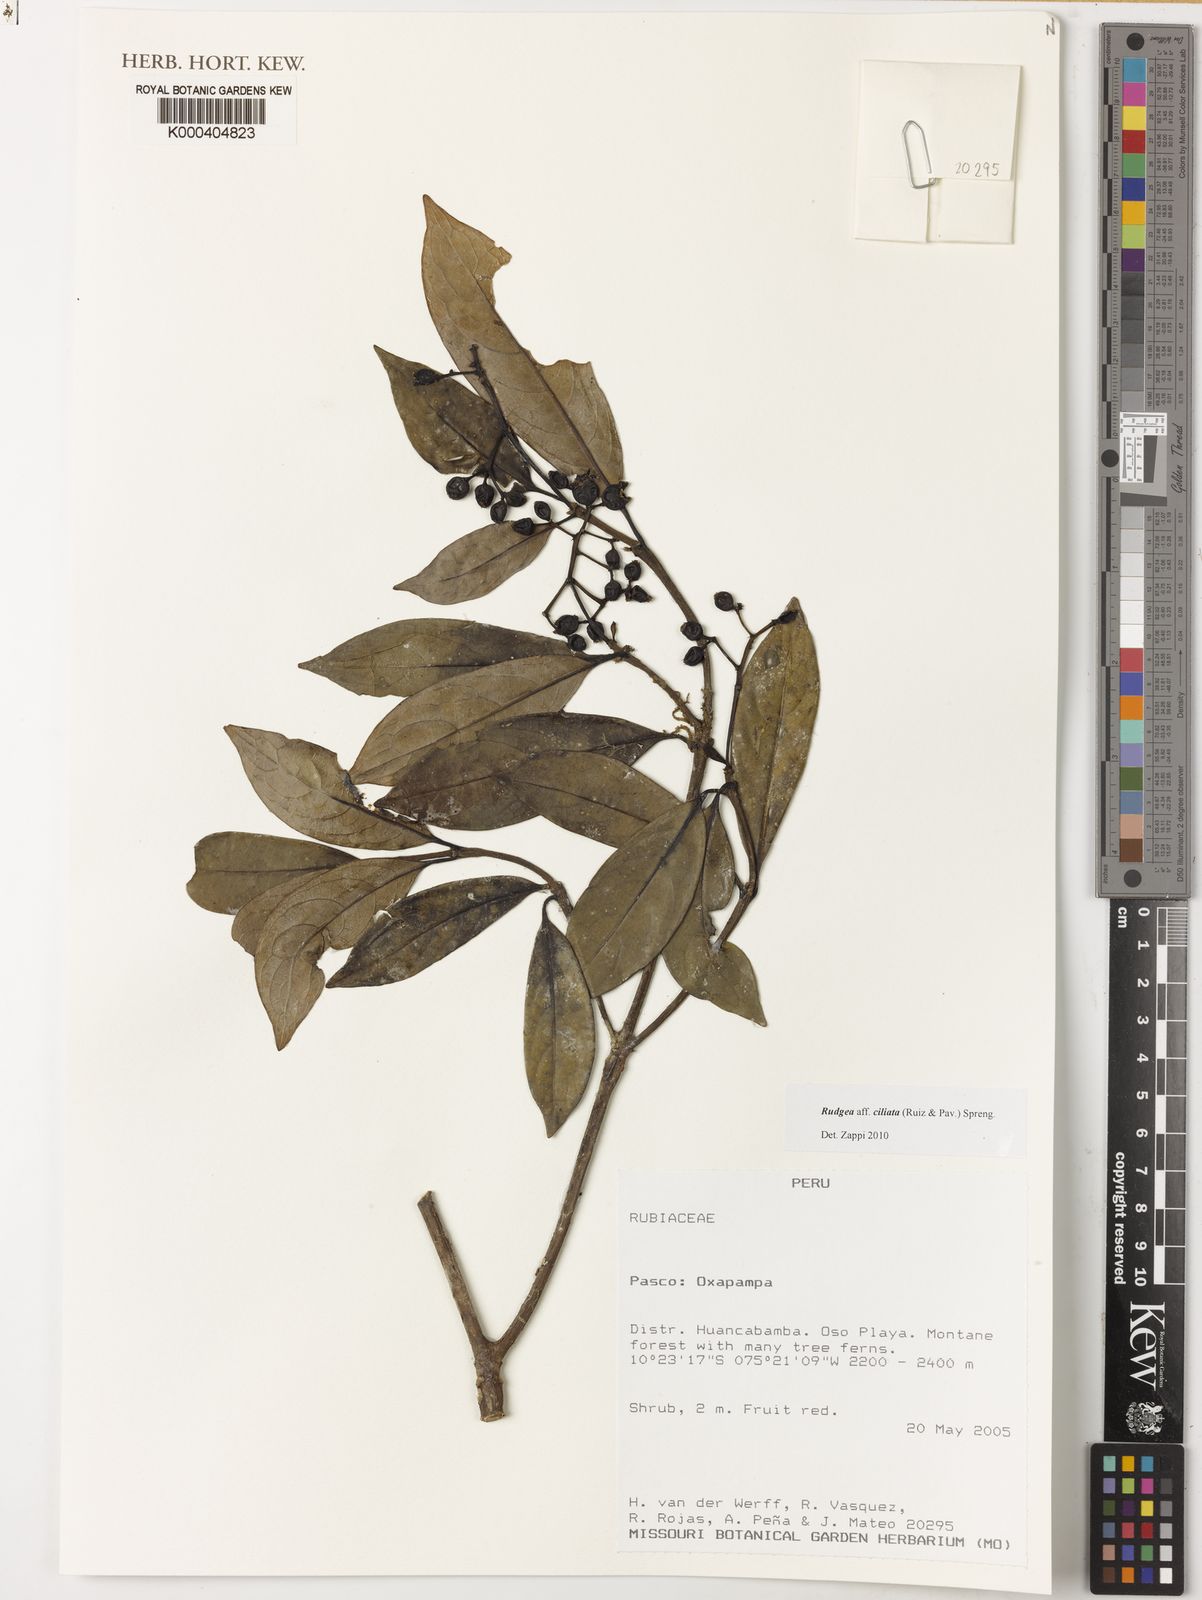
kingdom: Plantae
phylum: Tracheophyta
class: Magnoliopsida
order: Gentianales
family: Rubiaceae
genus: Rudgea
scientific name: Rudgea ciliata
